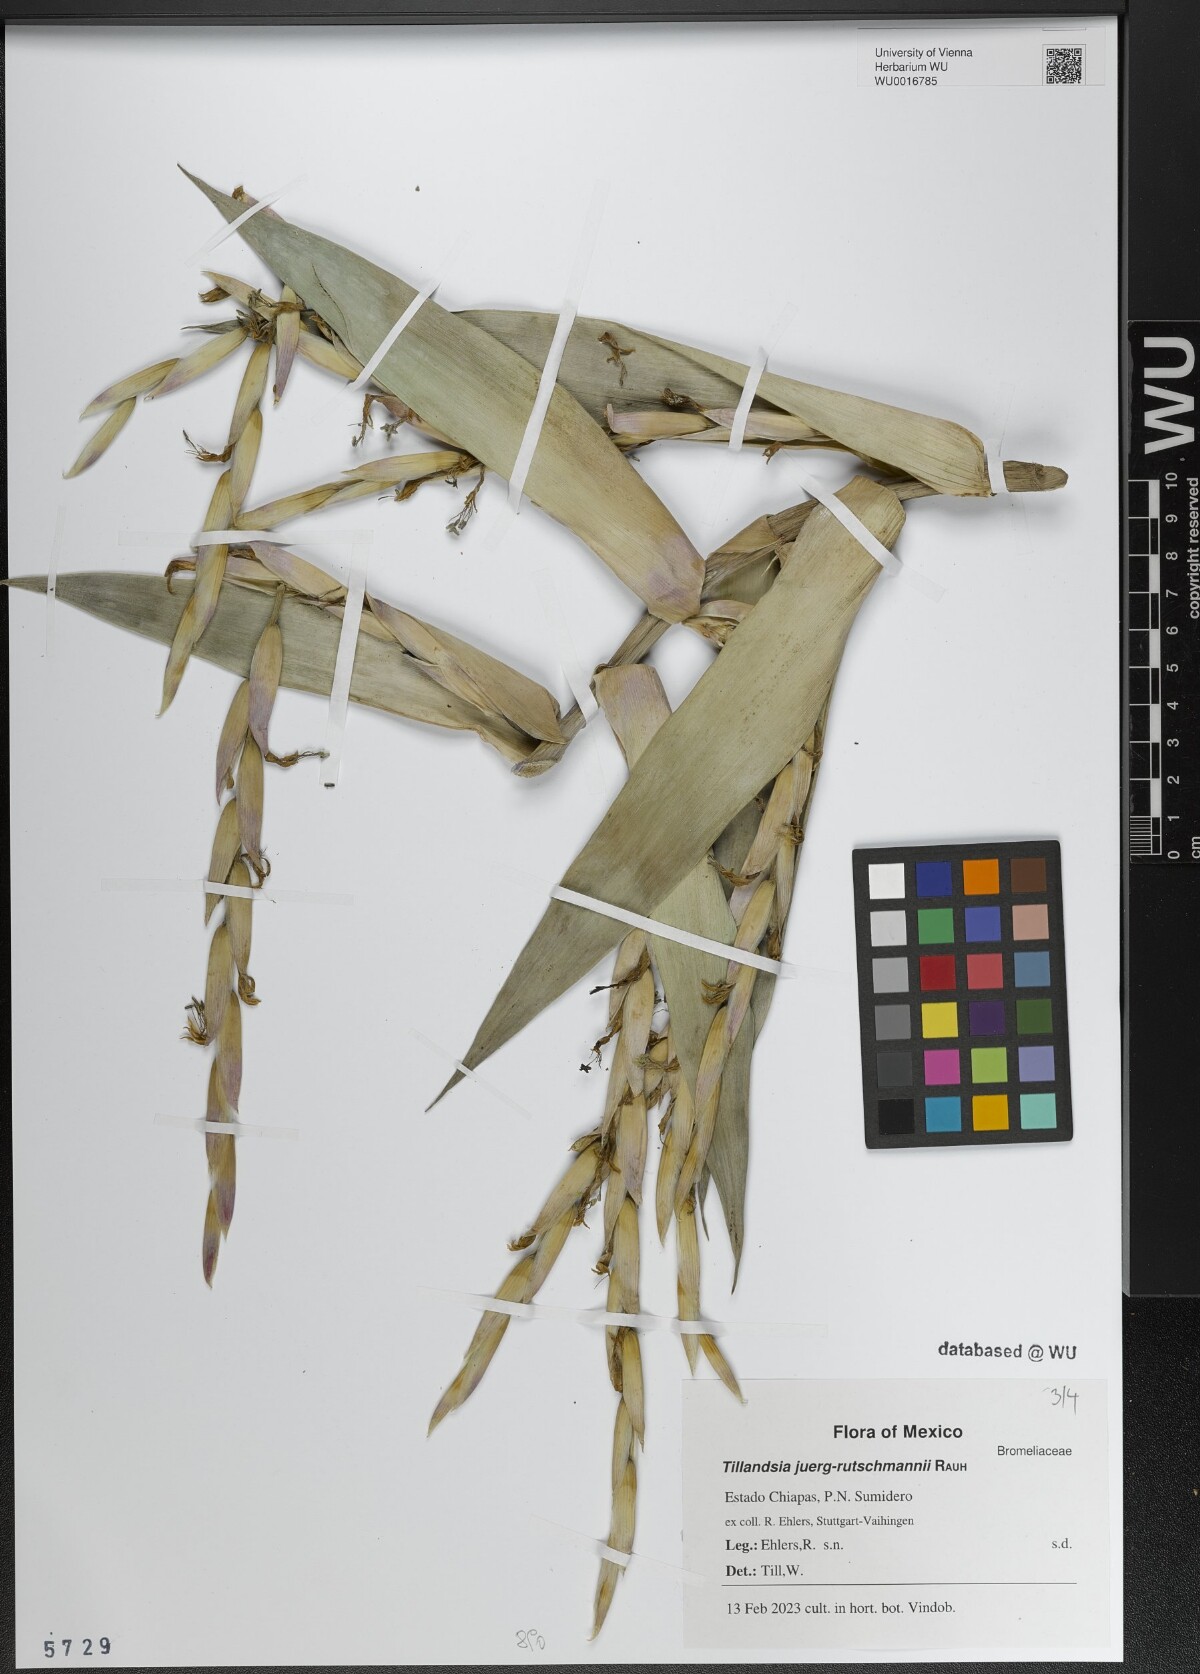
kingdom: Plantae
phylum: Tracheophyta
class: Liliopsida
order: Poales
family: Bromeliaceae
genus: Tillandsia
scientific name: Tillandsia juerg-rutschmannii
